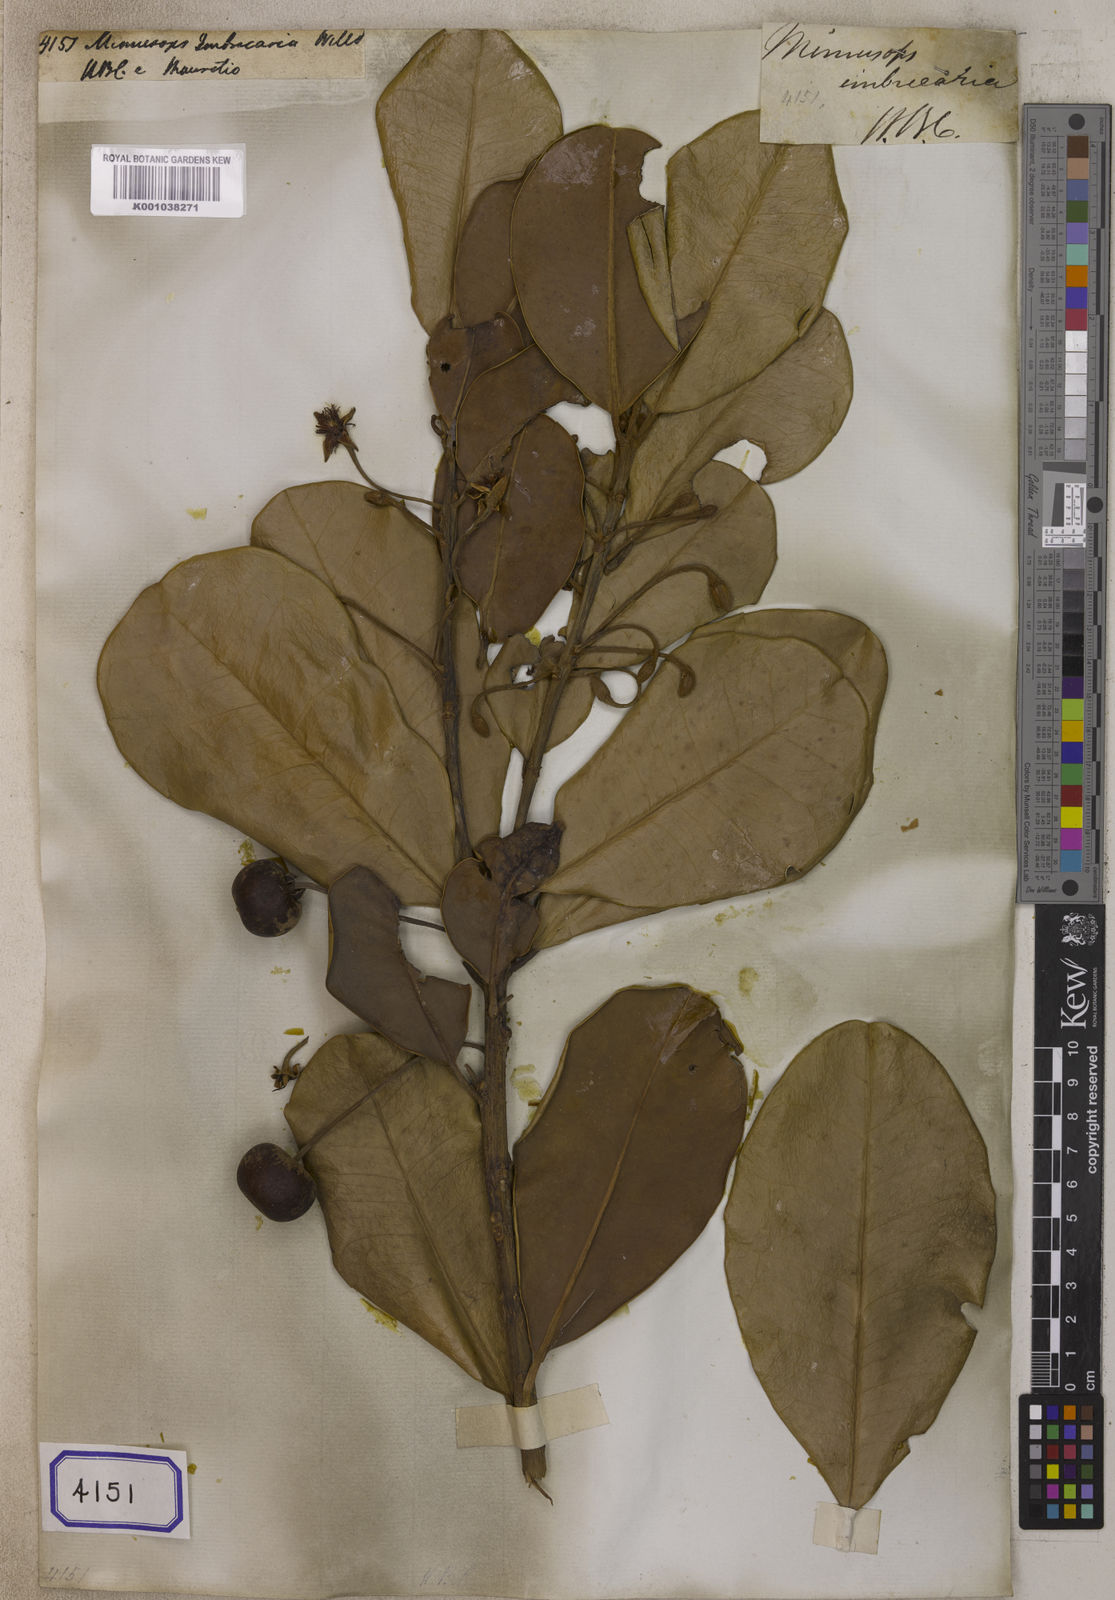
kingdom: Plantae
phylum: Tracheophyta
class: Magnoliopsida
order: Ericales
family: Sapotaceae
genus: Mimusops
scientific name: Mimusops balata
